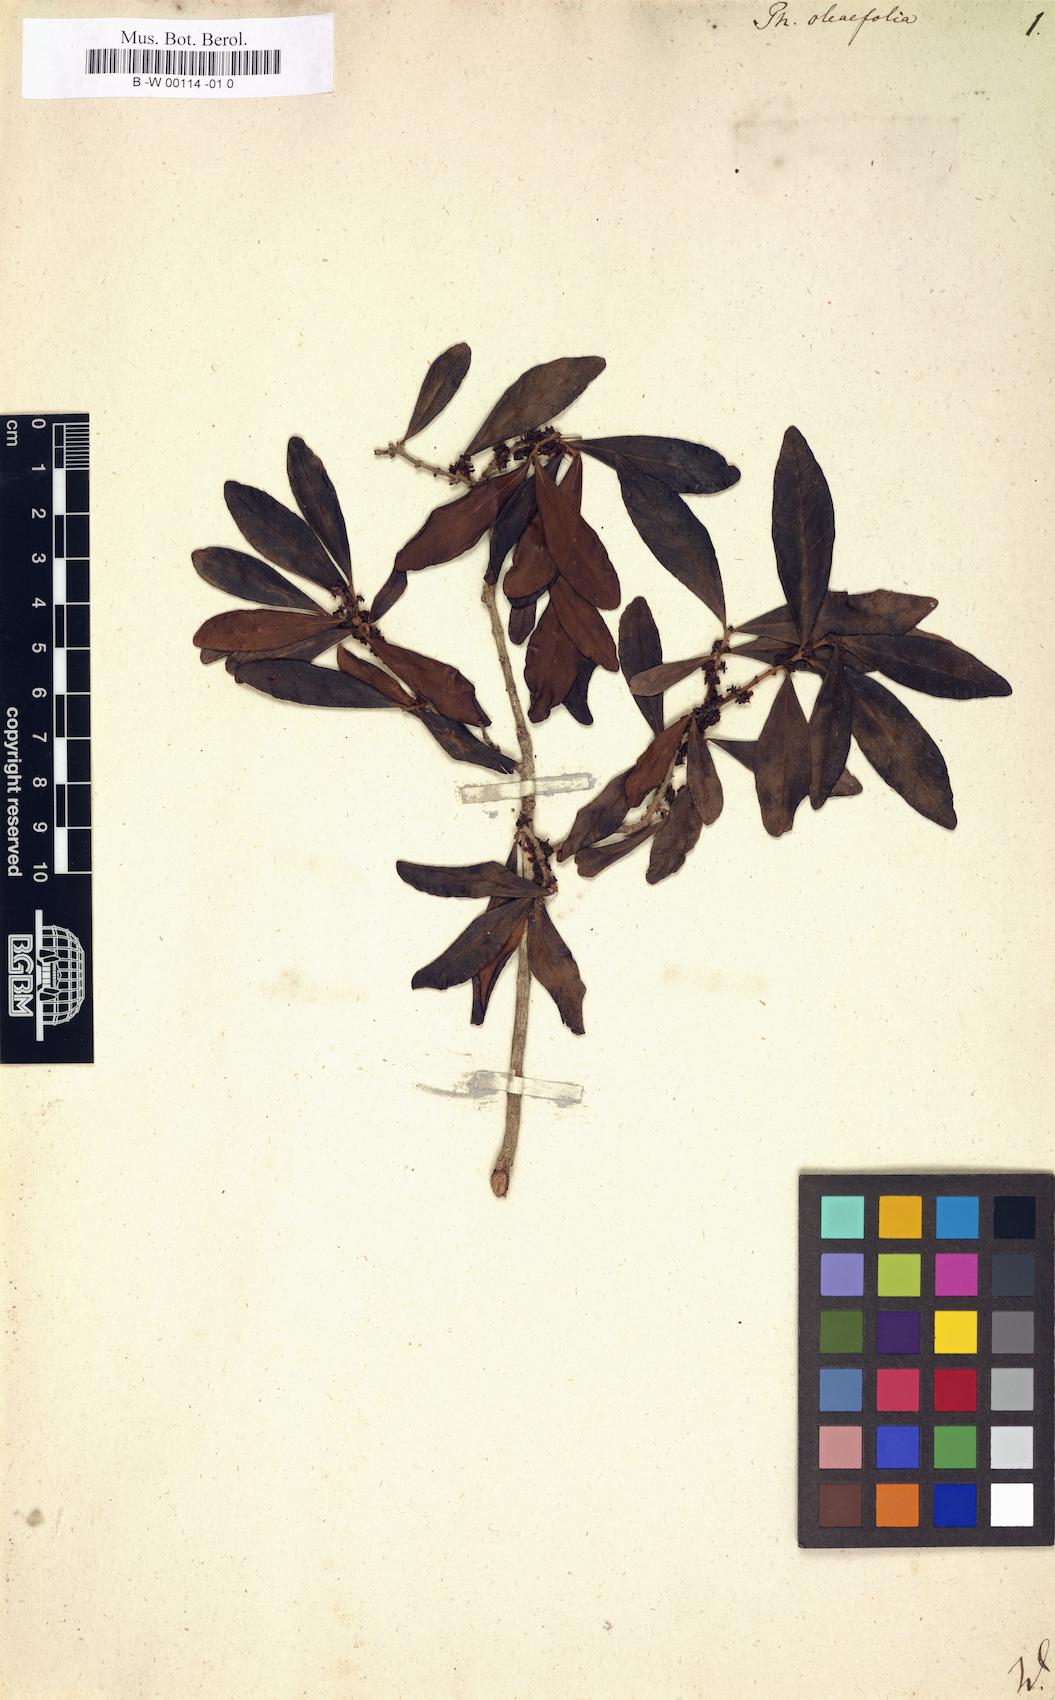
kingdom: Plantae
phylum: Tracheophyta
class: Magnoliopsida
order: Lamiales
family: Oleaceae
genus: Phillyrea
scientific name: Phillyrea latifolia
